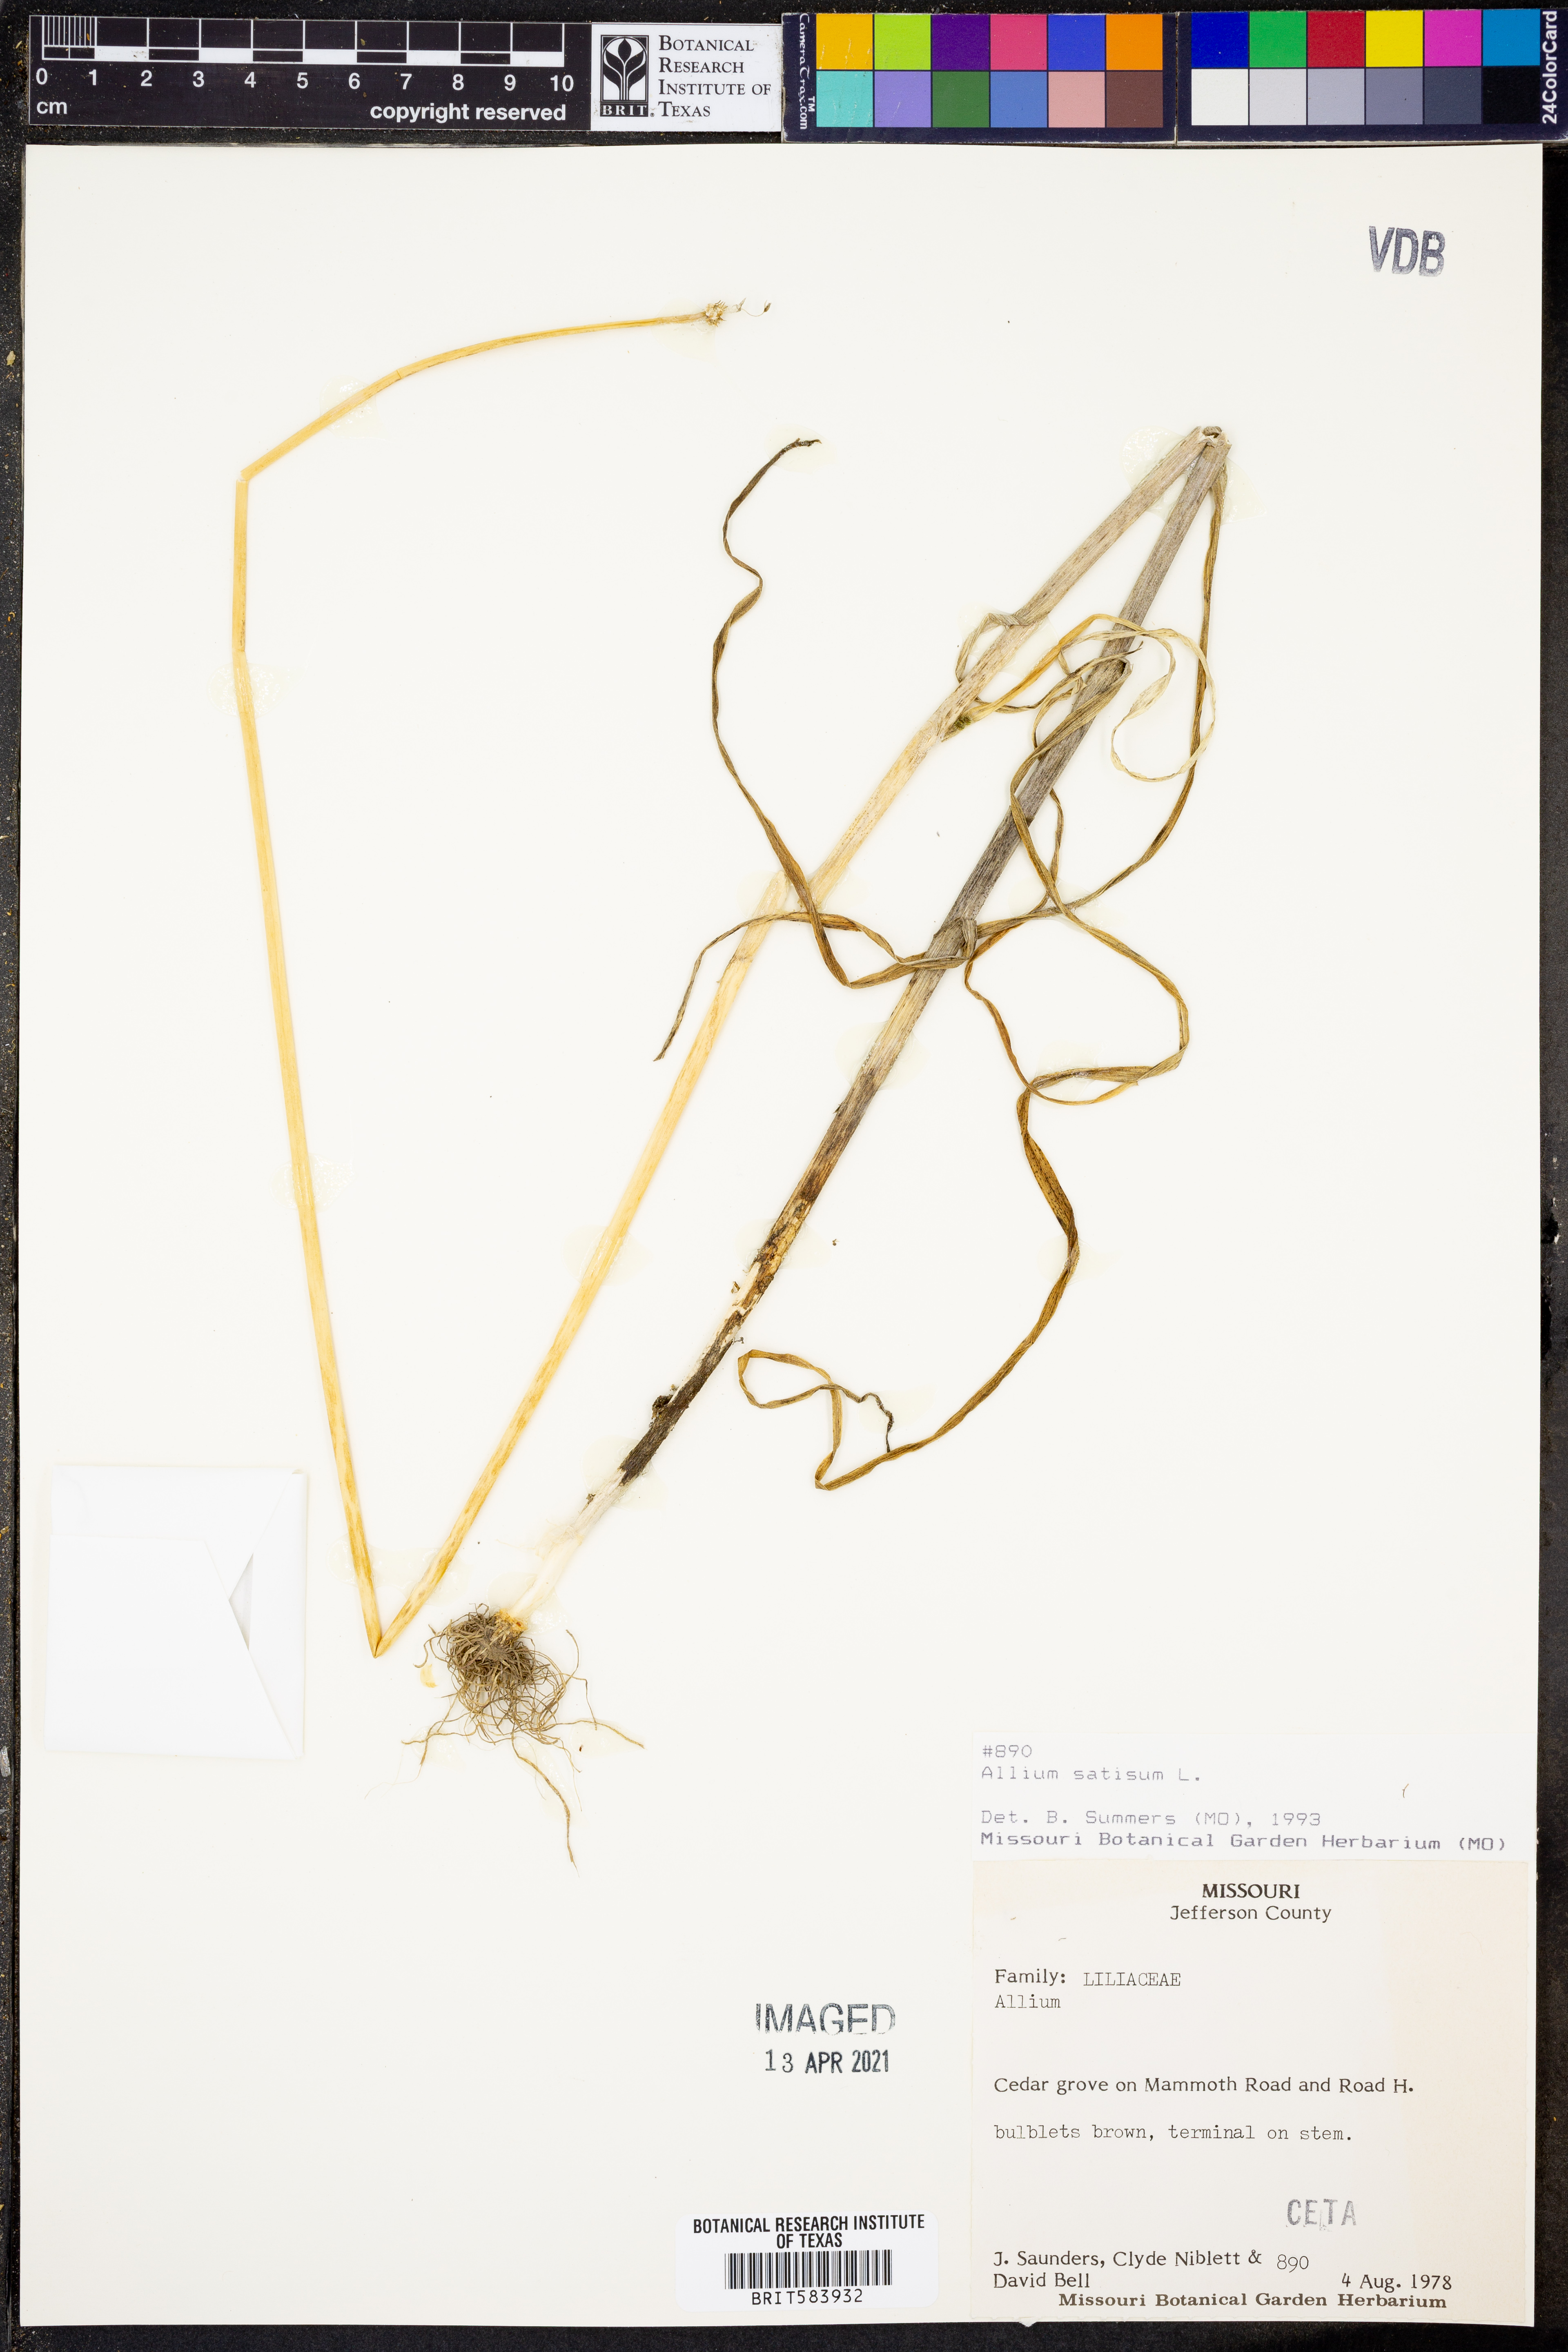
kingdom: Plantae
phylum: Tracheophyta
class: Liliopsida
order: Asparagales
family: Amaryllidaceae
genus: Allium
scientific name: Allium sativum
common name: Garlic
